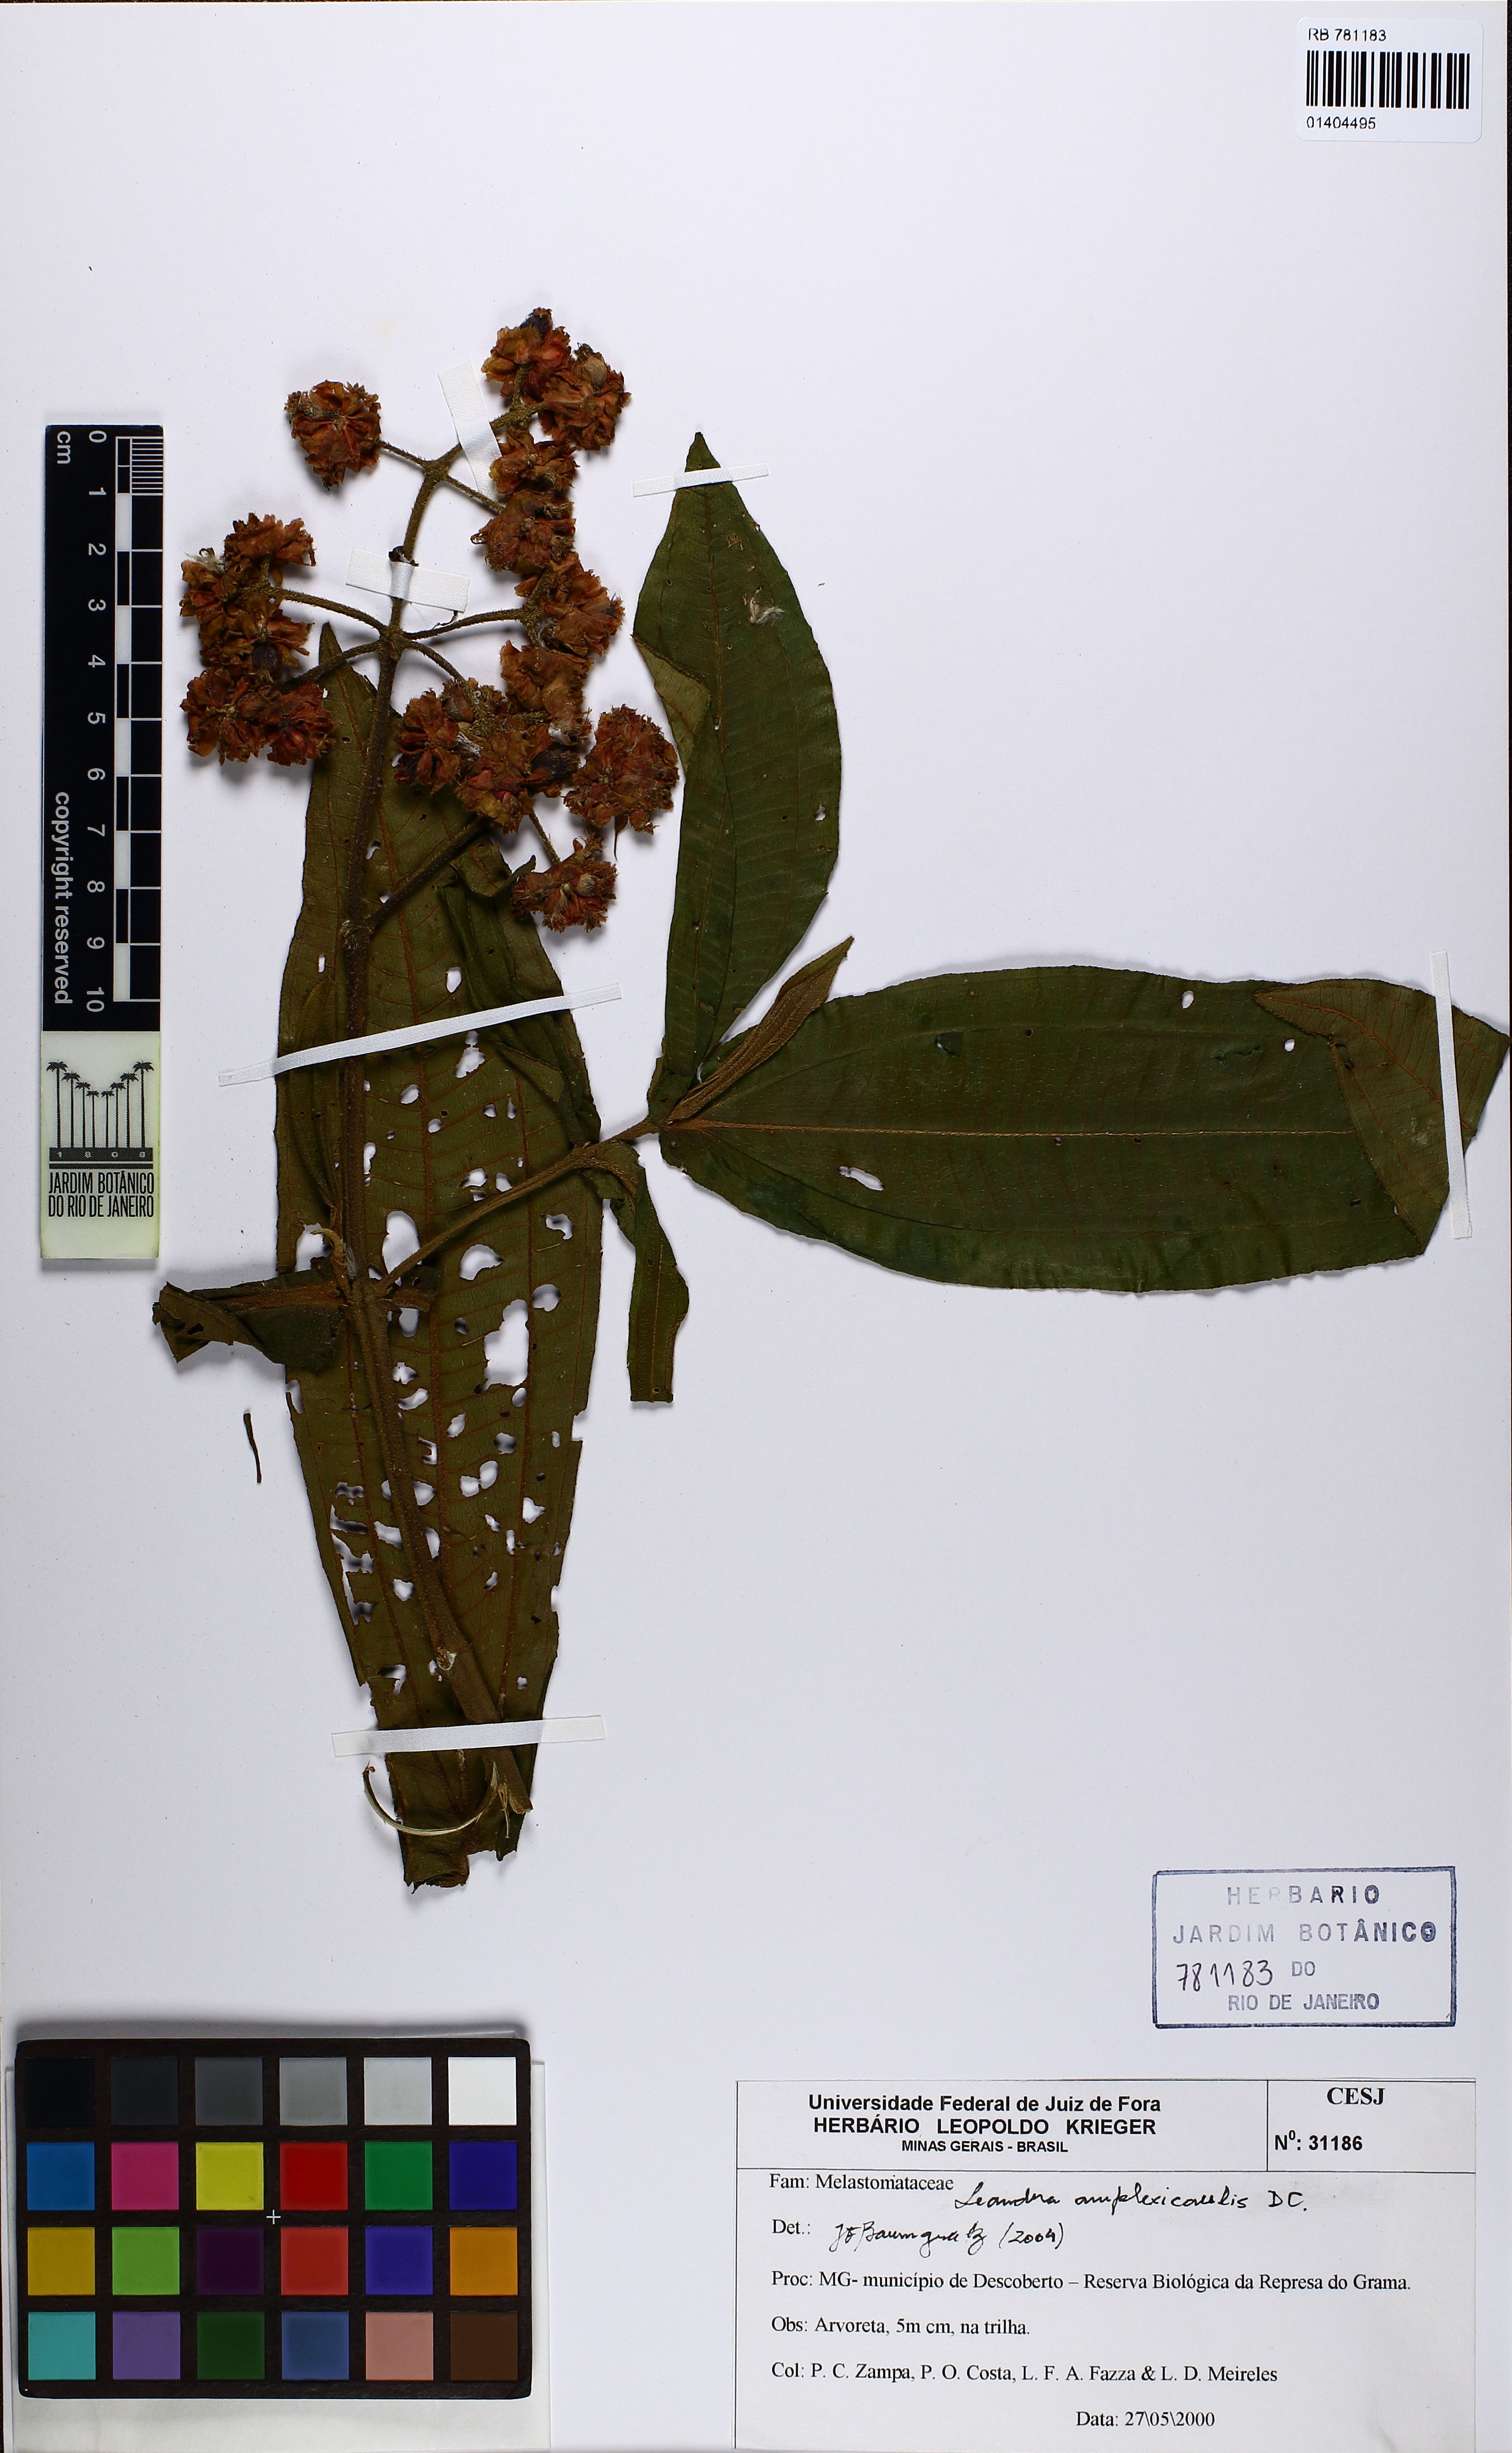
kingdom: Plantae
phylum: Tracheophyta
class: Magnoliopsida
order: Myrtales
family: Melastomataceae
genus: Miconia
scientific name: Miconia pectinata
